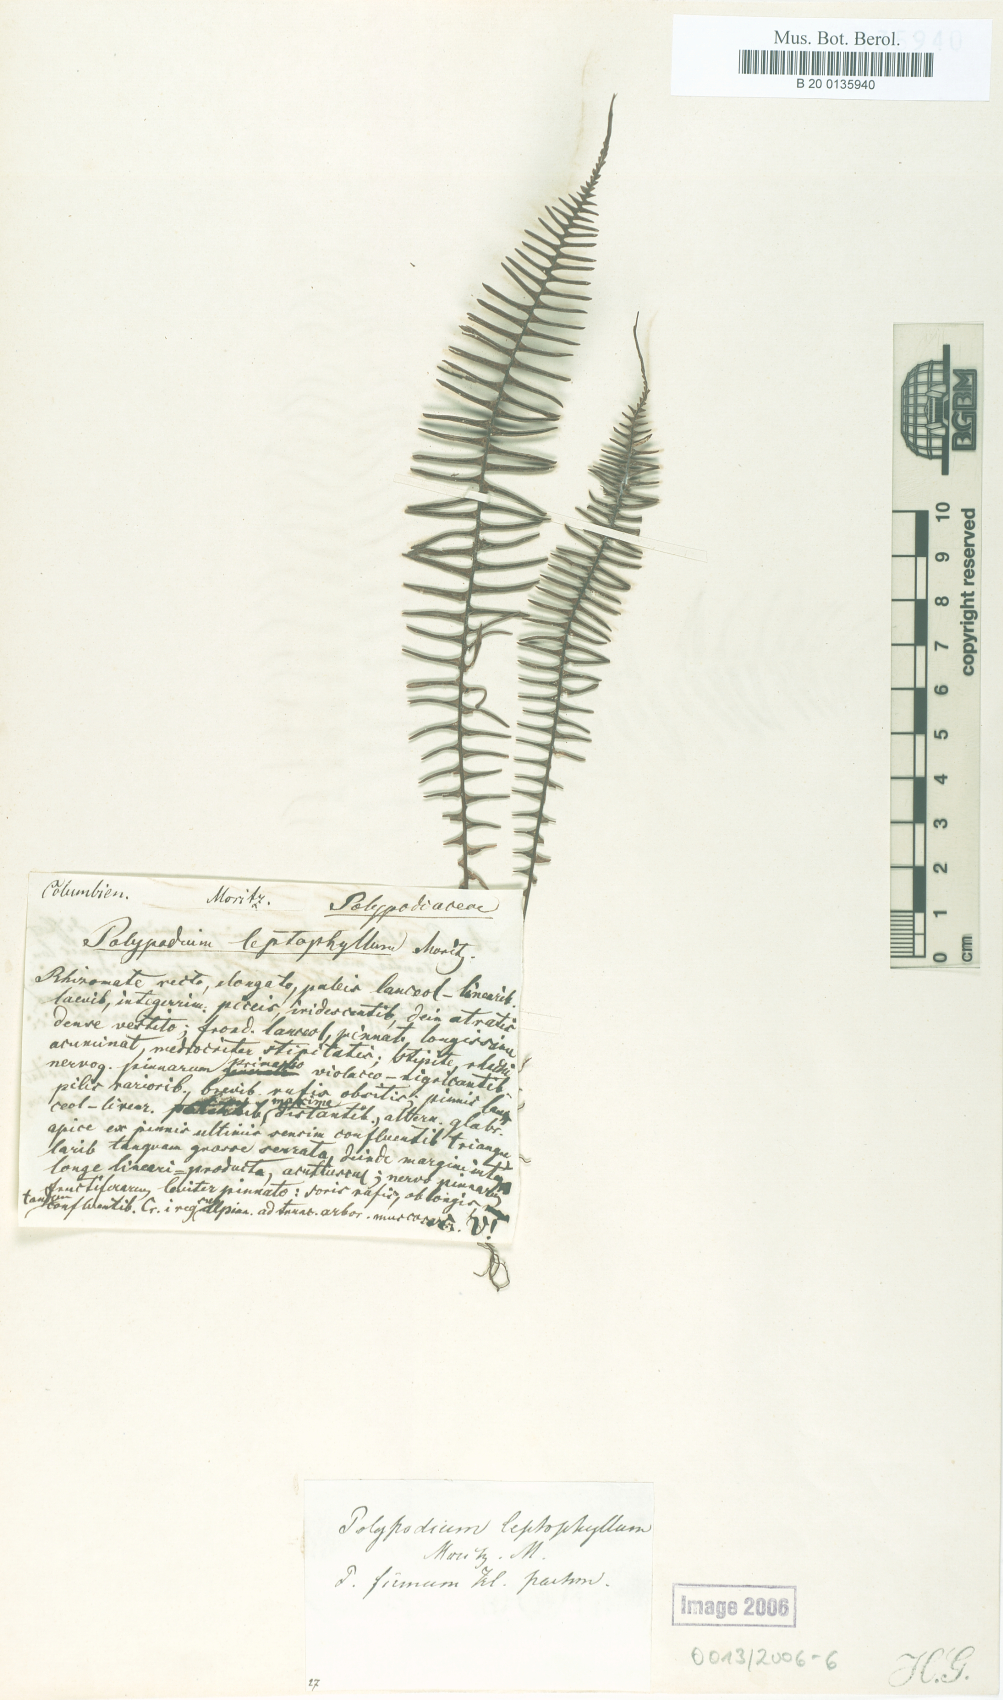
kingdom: Plantae
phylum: Tracheophyta
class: Polypodiopsida
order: Polypodiales
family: Polypodiaceae
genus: Melpomene
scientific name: Melpomene pilosissima
